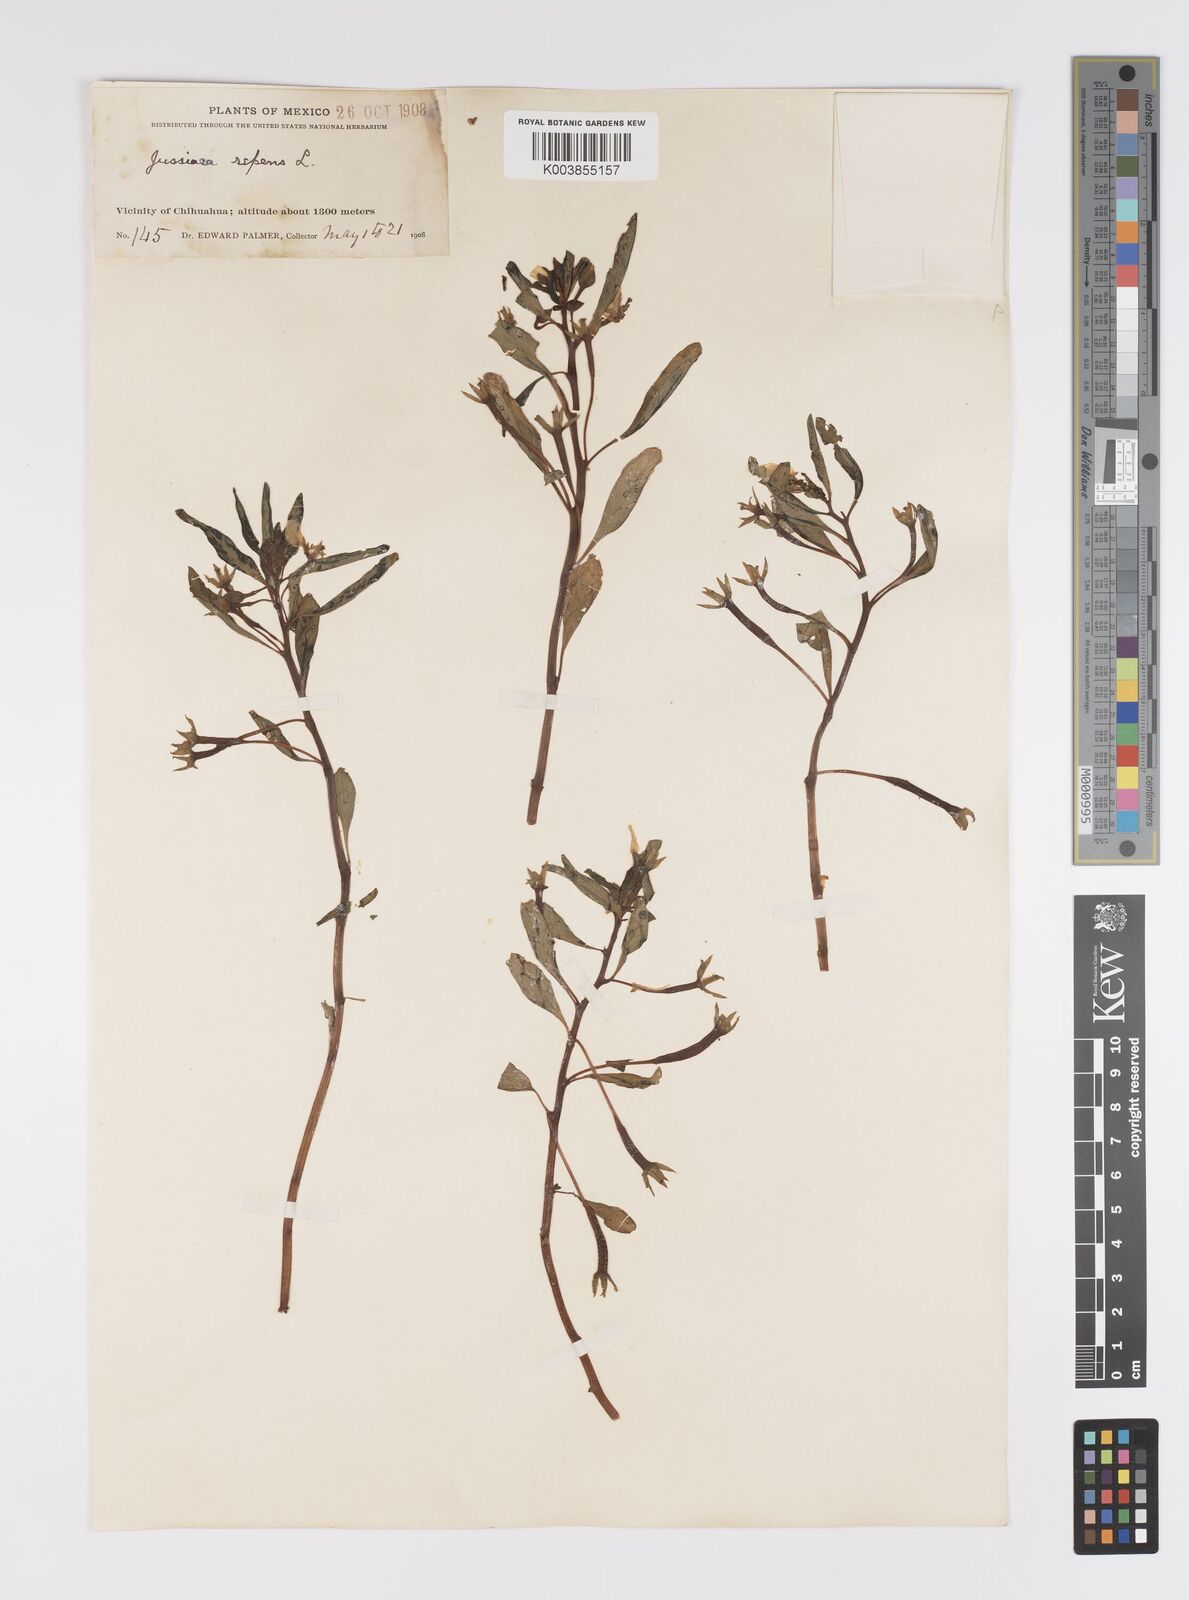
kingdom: Plantae
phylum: Tracheophyta
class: Magnoliopsida
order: Myrtales
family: Onagraceae
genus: Ludwigia
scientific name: Ludwigia adscendens
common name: Creeping water primrose
